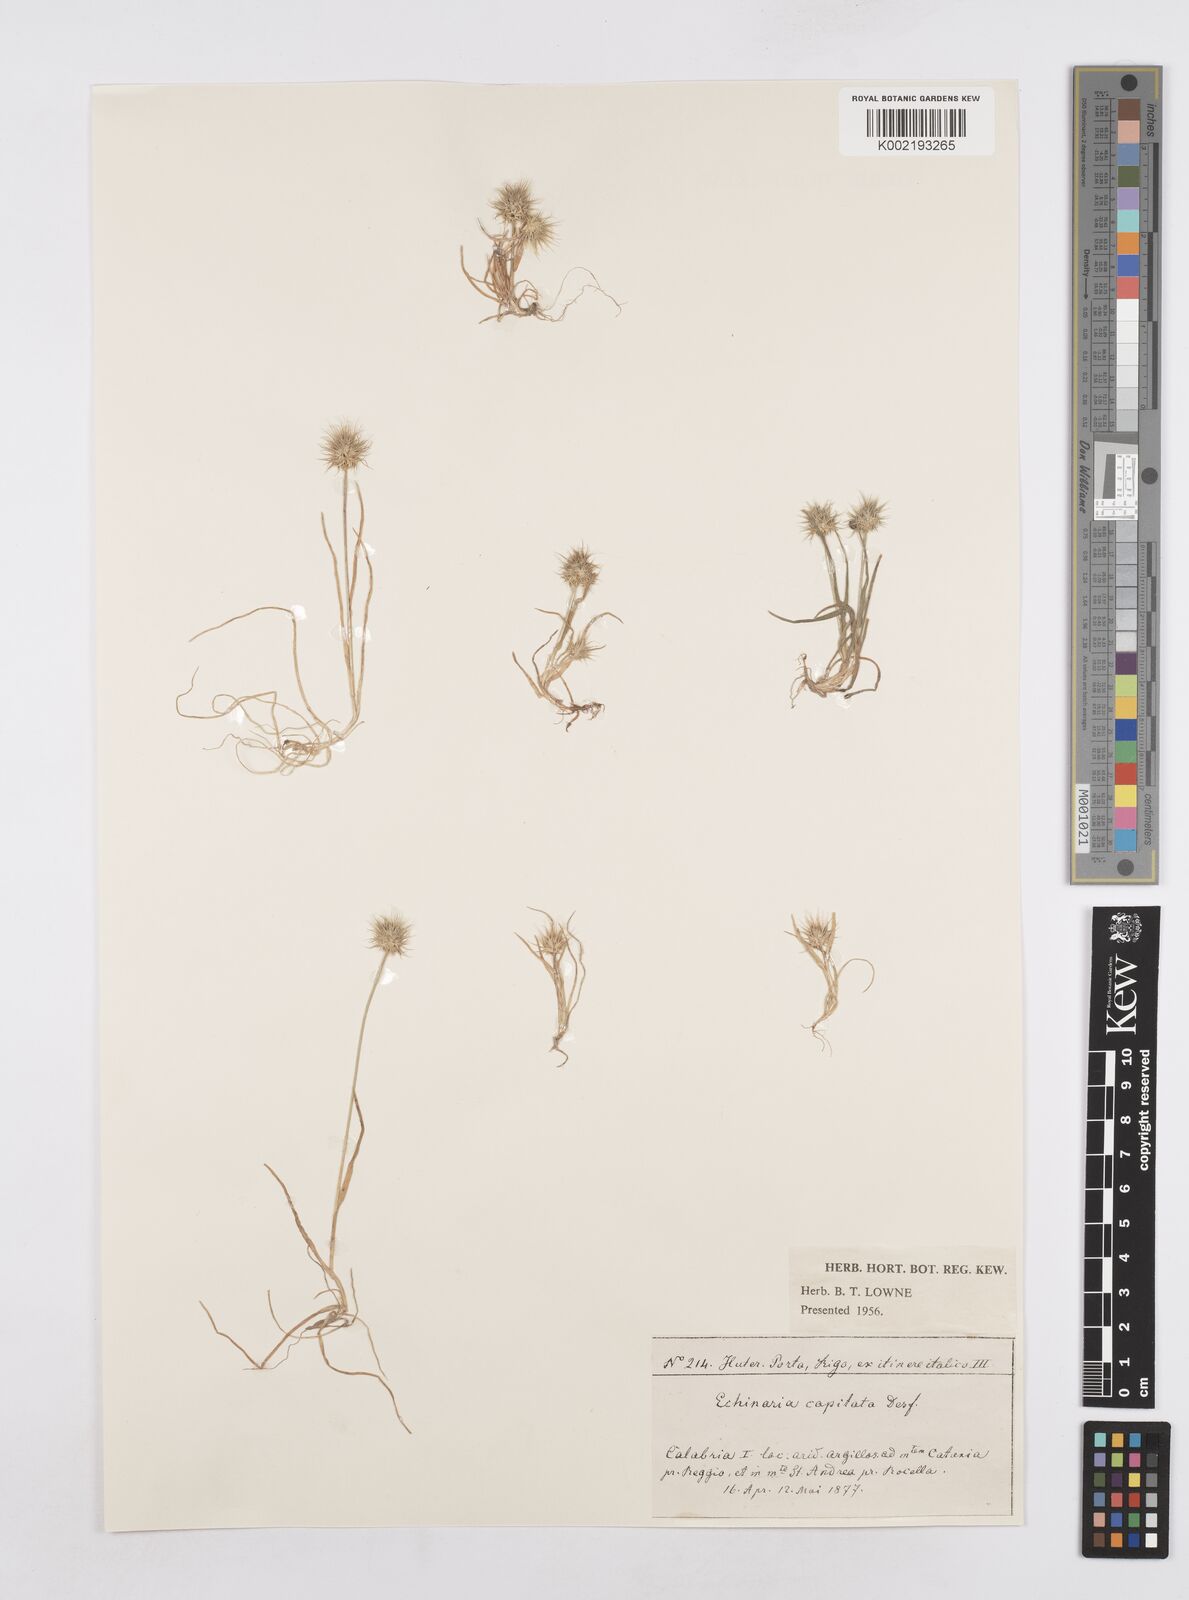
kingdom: Plantae
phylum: Tracheophyta
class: Liliopsida
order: Poales
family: Poaceae
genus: Echinaria
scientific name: Echinaria capitata
